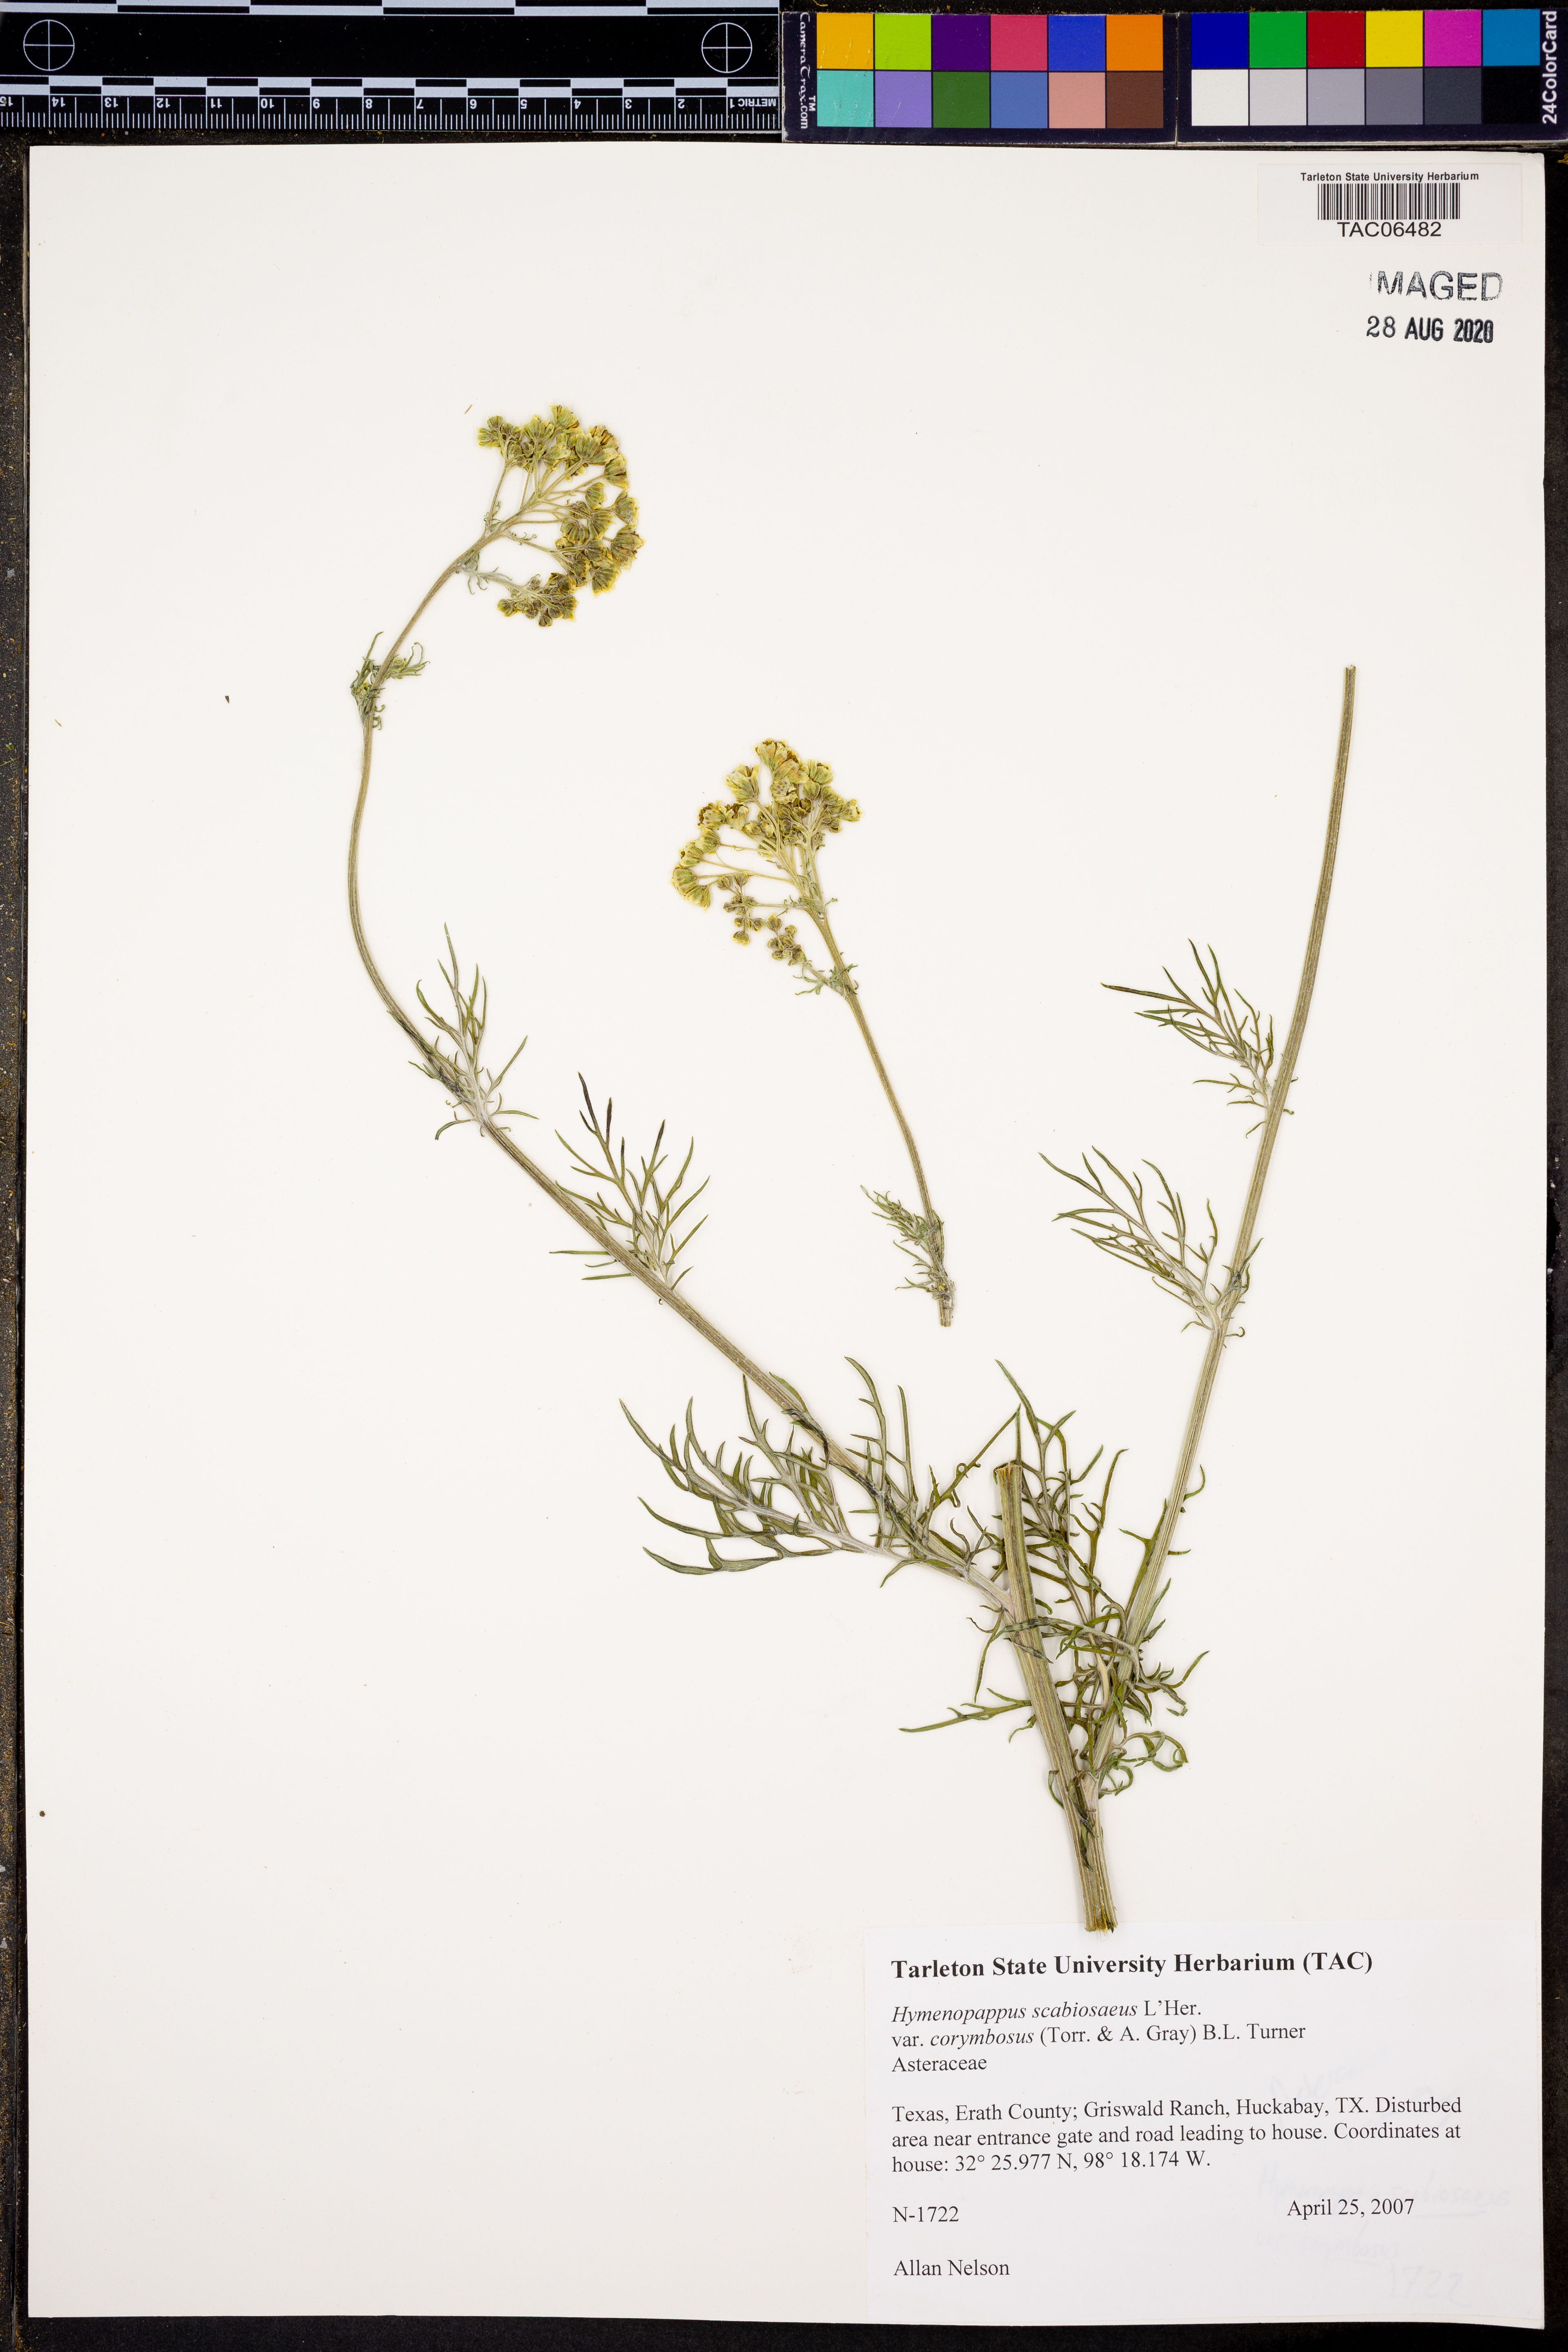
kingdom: Plantae
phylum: Tracheophyta
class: Magnoliopsida
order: Asterales
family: Asteraceae
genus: Hymenopappus
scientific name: Hymenopappus scabiosaeus
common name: Carolina woollywhite
